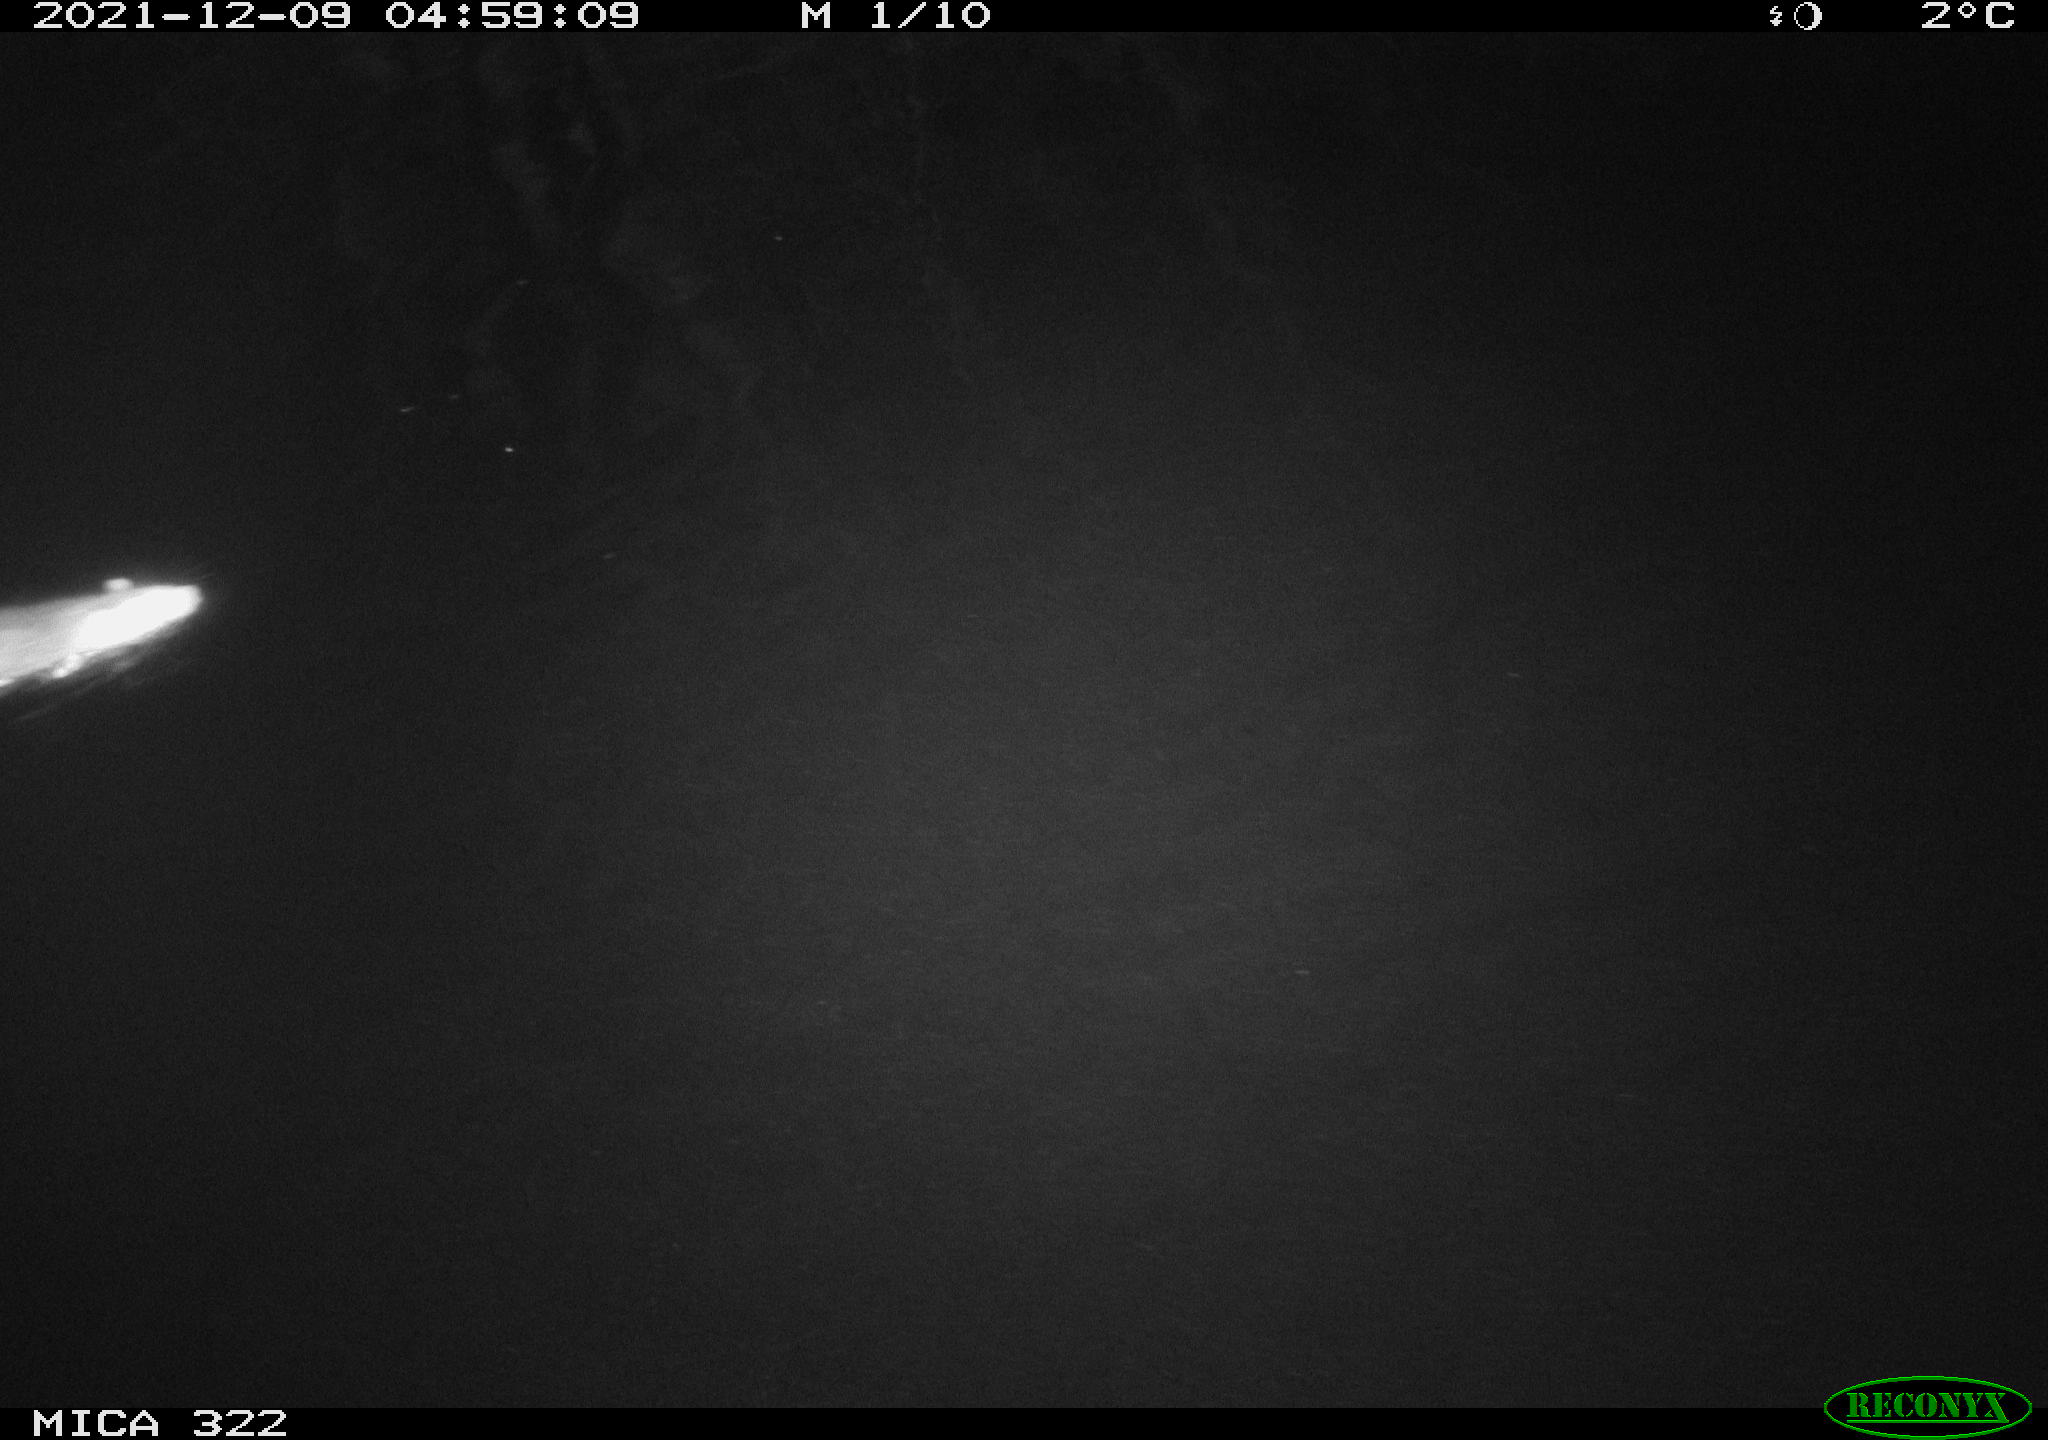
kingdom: Animalia
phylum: Chordata
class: Mammalia
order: Rodentia
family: Muridae
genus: Rattus
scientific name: Rattus norvegicus
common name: Brown rat
